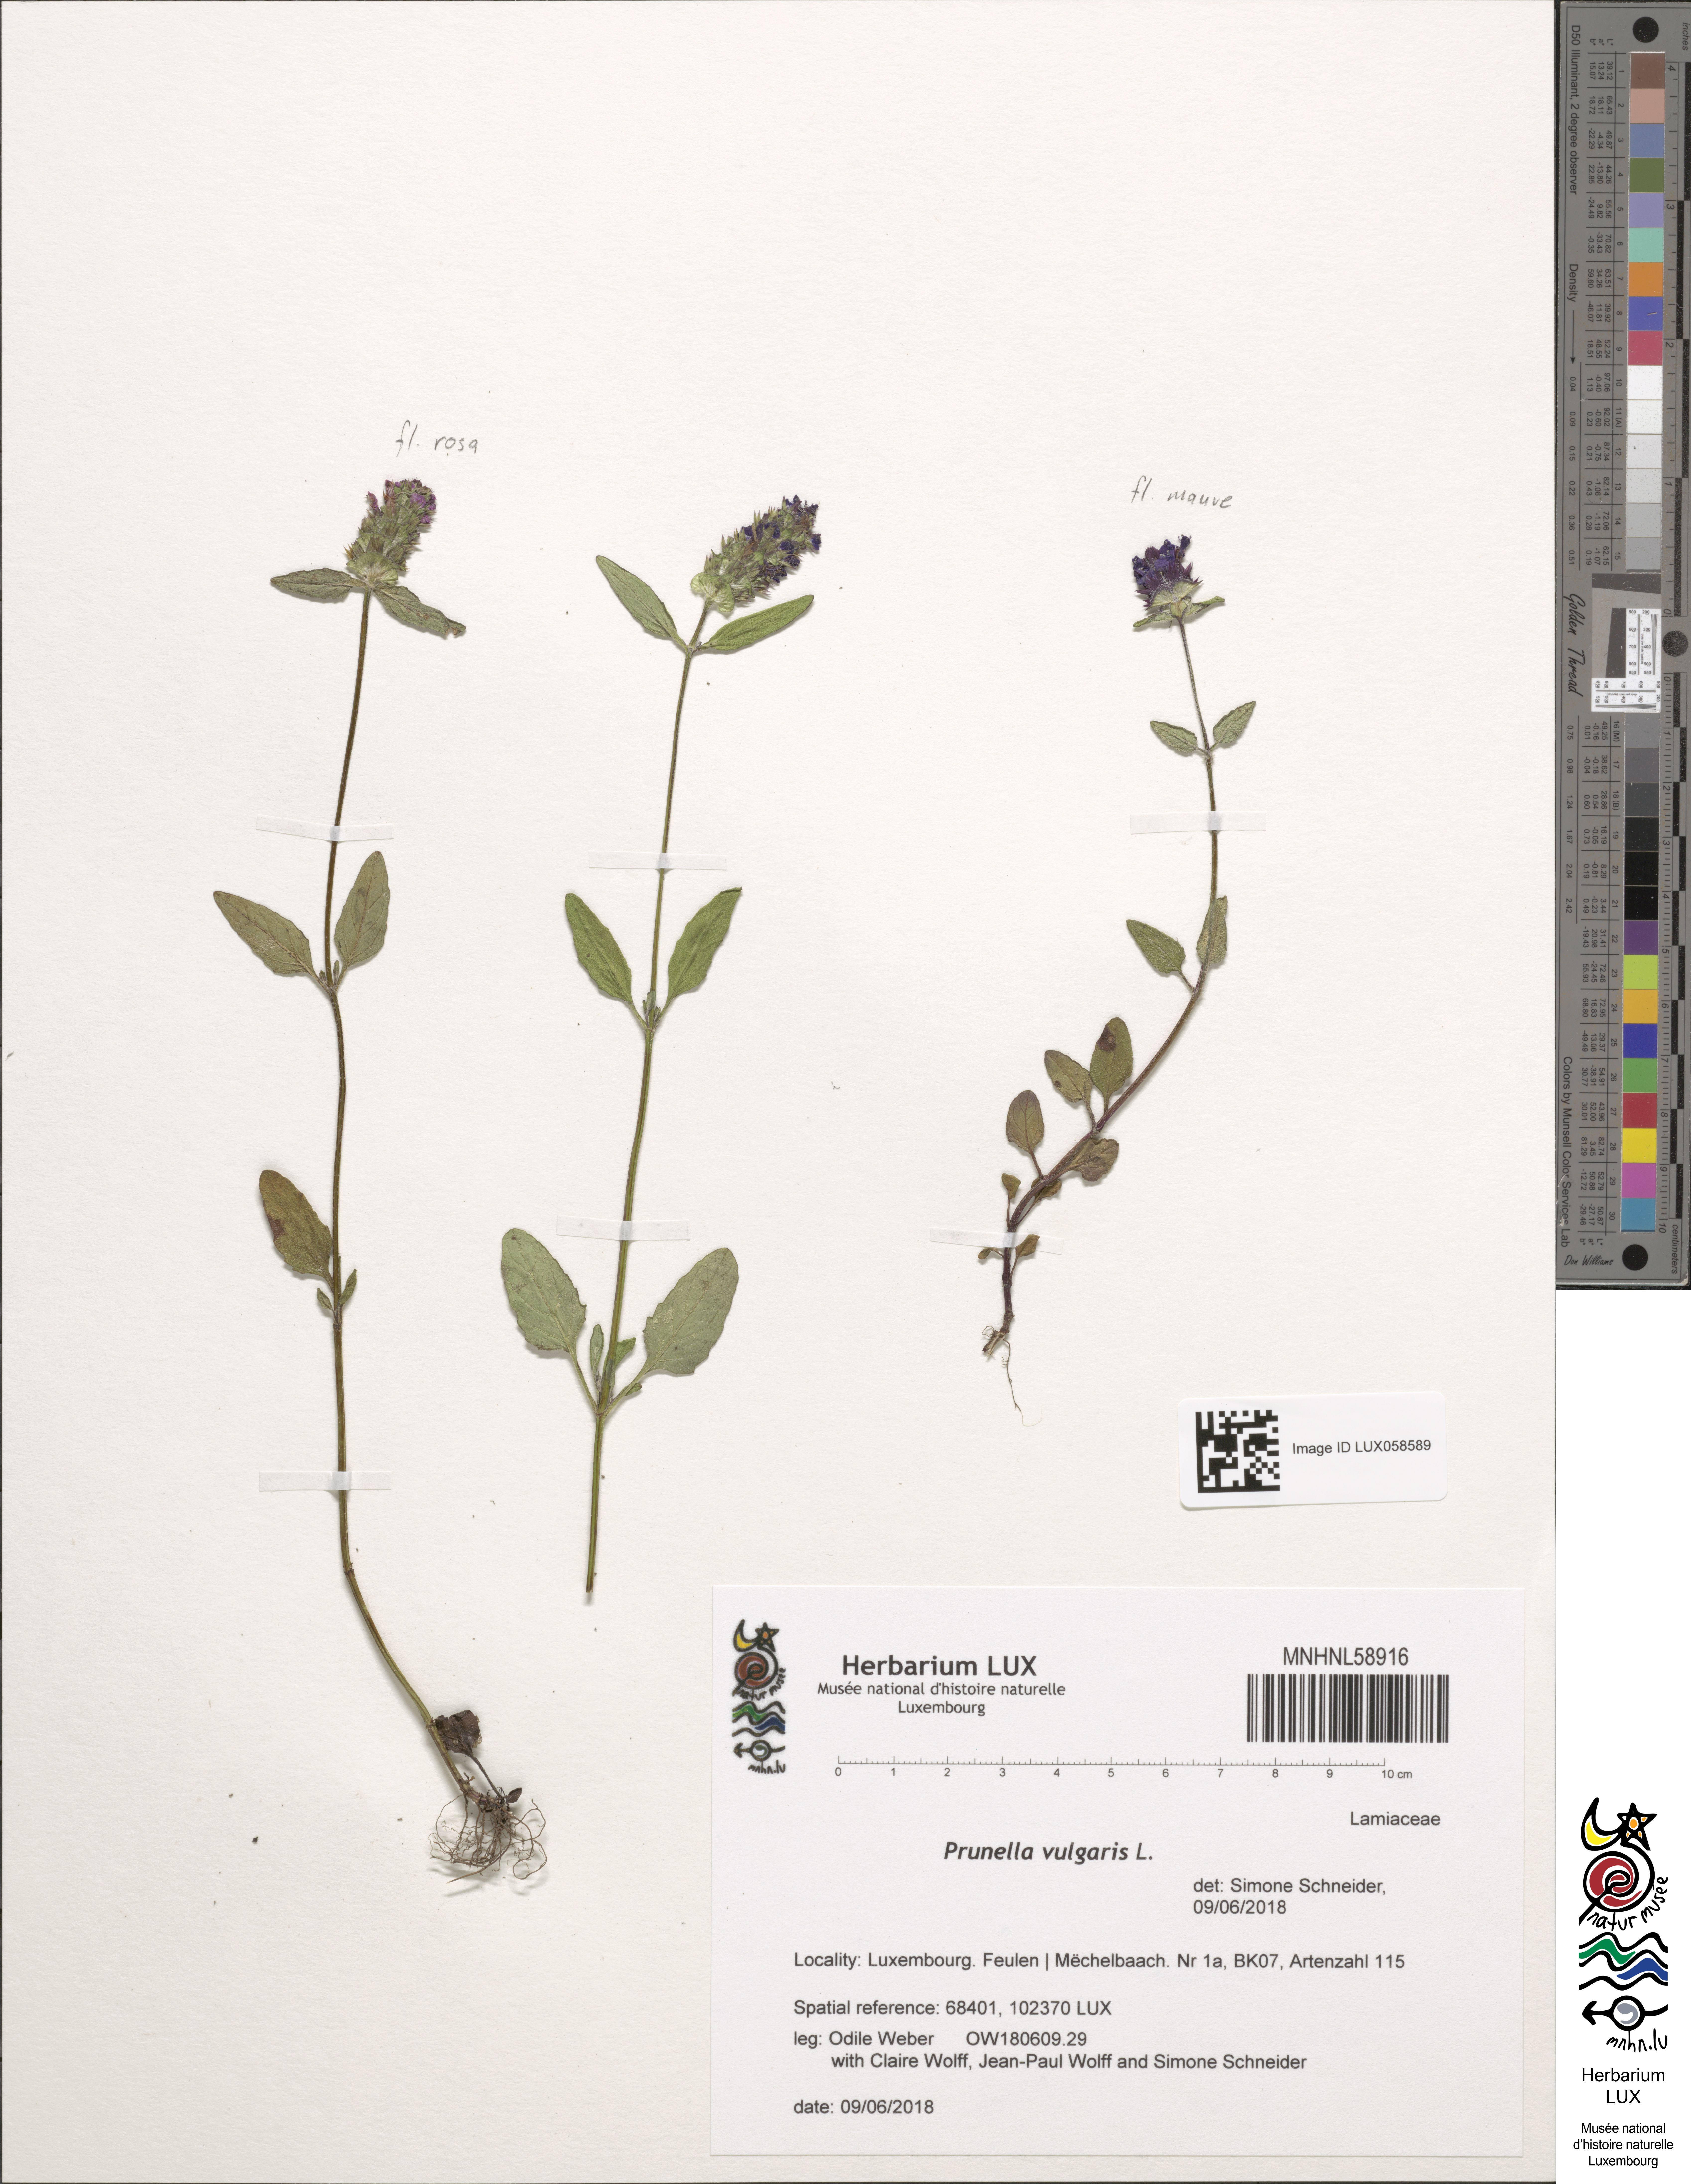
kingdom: Plantae
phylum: Tracheophyta
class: Magnoliopsida
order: Lamiales
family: Lamiaceae
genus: Prunella
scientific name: Prunella vulgaris
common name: Heal-all
